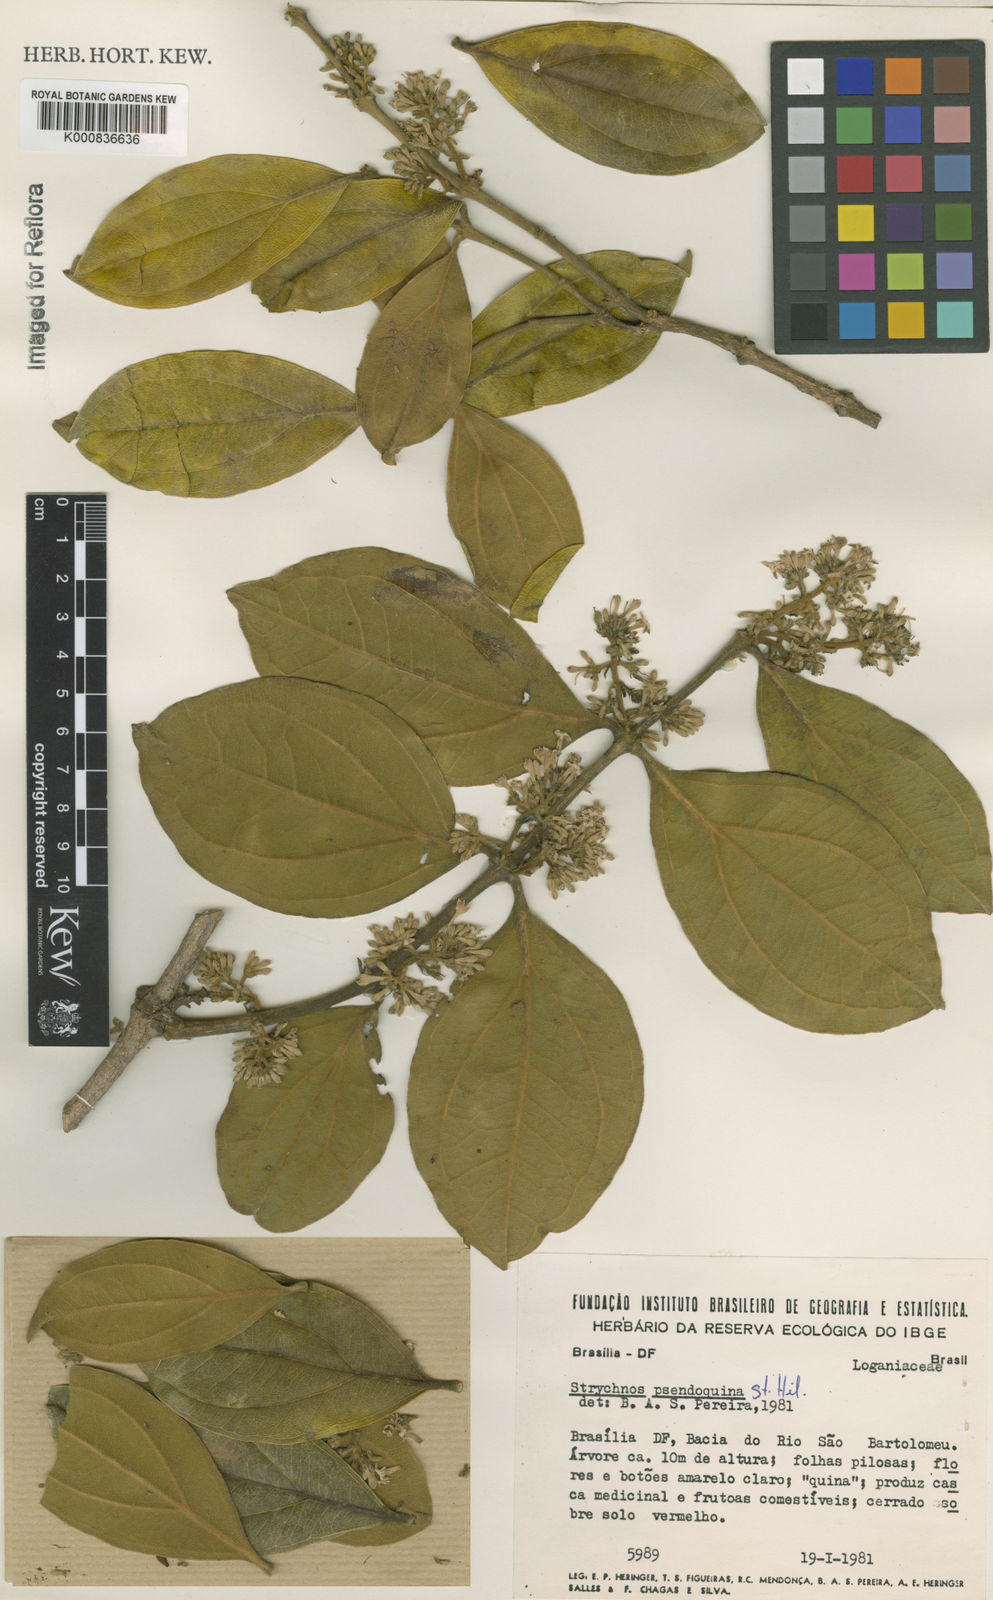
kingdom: Plantae
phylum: Tracheophyta
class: Magnoliopsida
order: Gentianales
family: Loganiaceae
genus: Strychnos
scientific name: Strychnos pseudoquina
